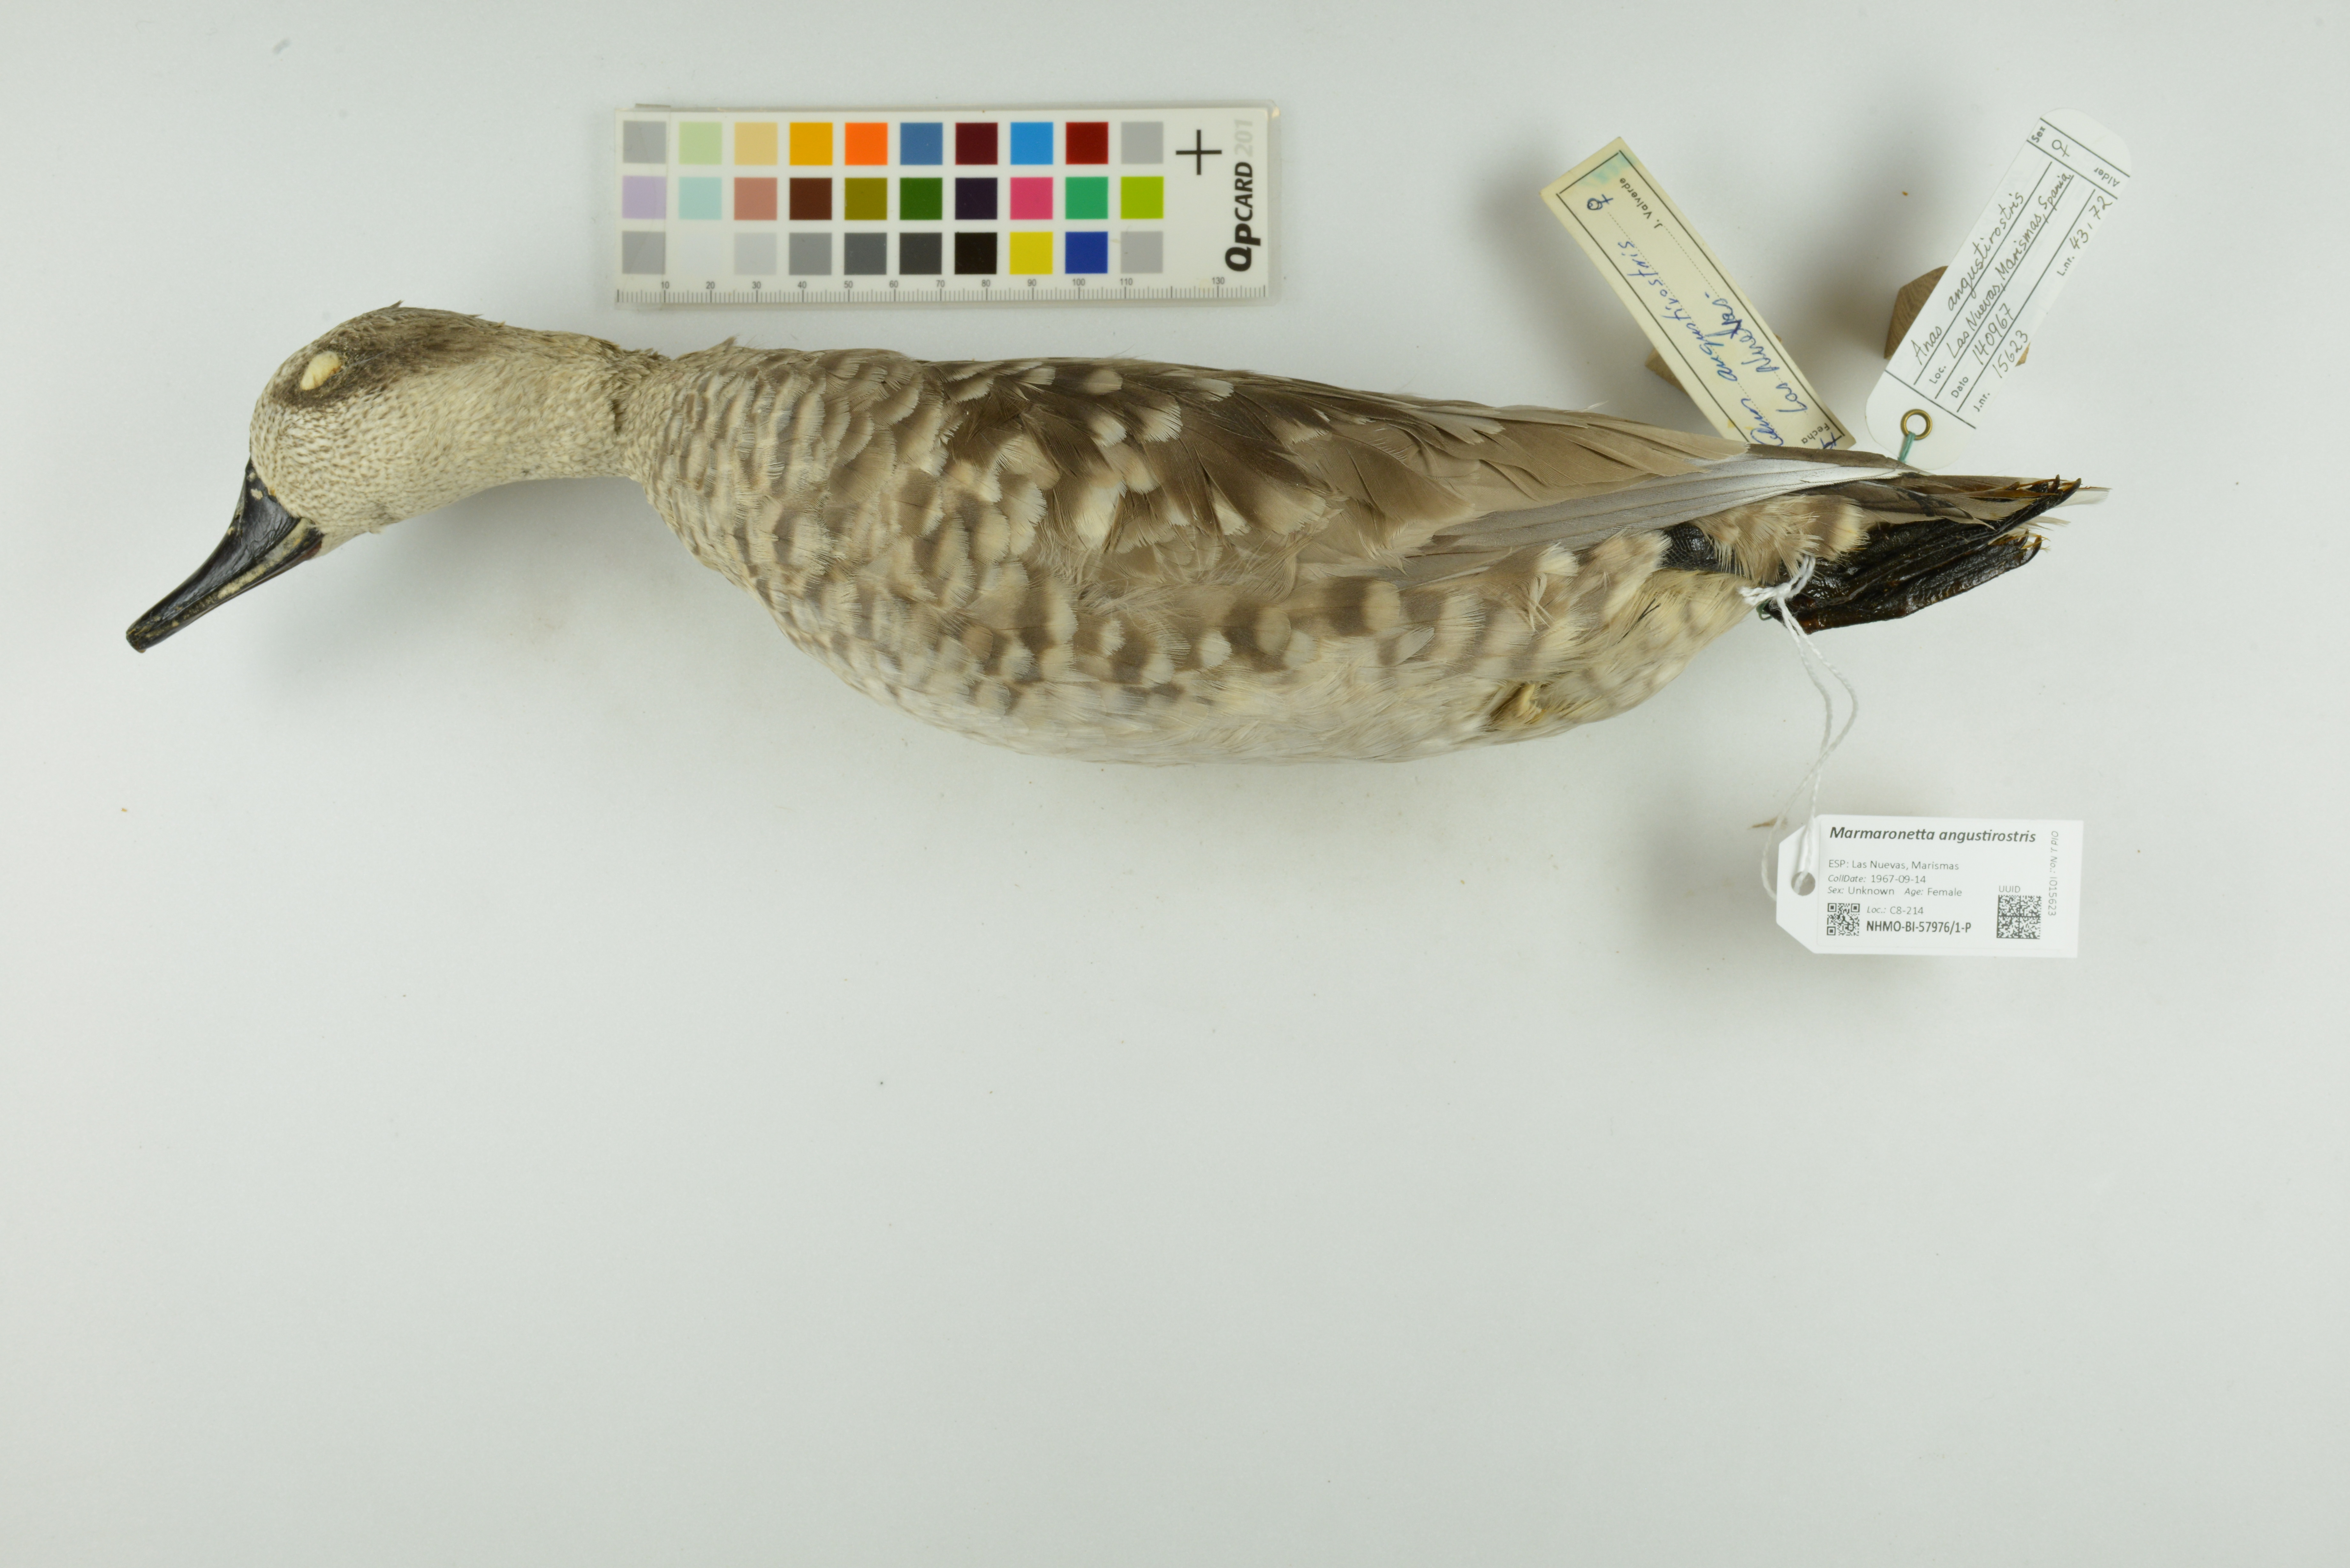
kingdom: Animalia
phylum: Chordata
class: Aves
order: Anseriformes
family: Anatidae
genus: Marmaronetta
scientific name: Marmaronetta angustirostris
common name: Marbled duck
